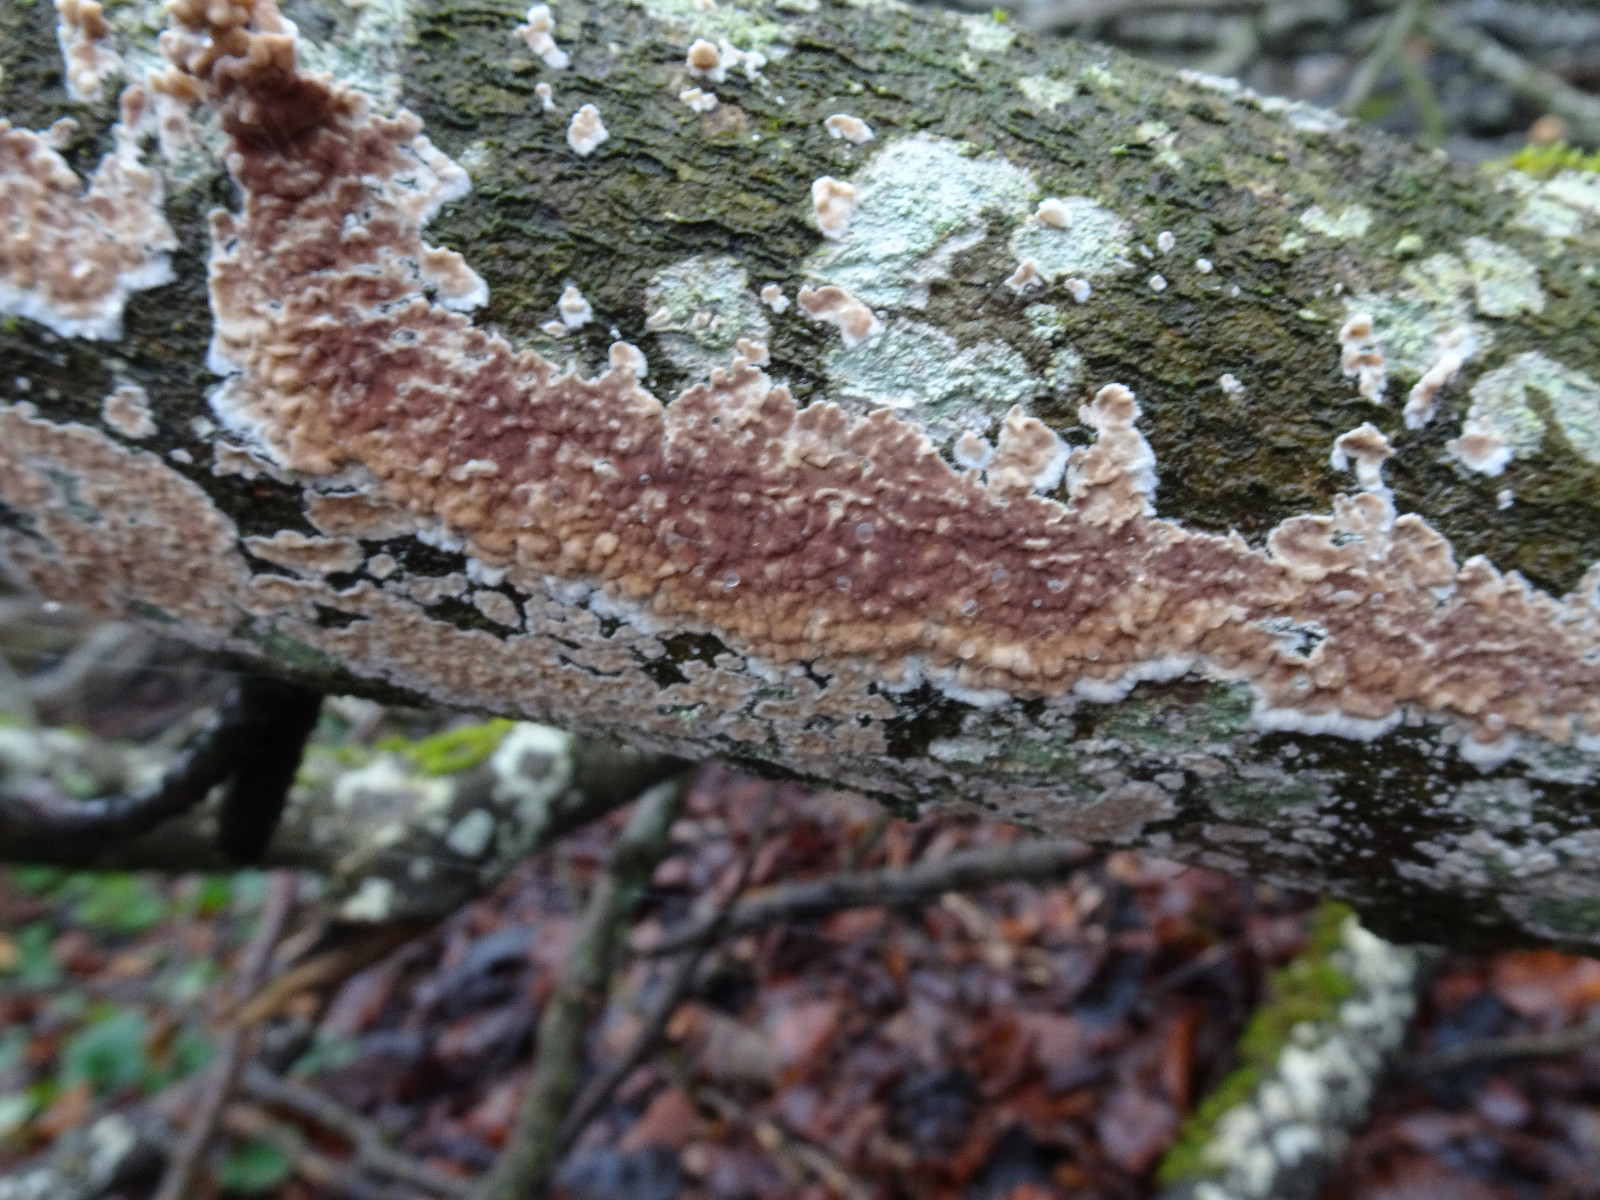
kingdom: Fungi
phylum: Basidiomycota
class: Agaricomycetes
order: Agaricales
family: Physalacriaceae
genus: Cylindrobasidium
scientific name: Cylindrobasidium evolvens
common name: sprækkehinde
